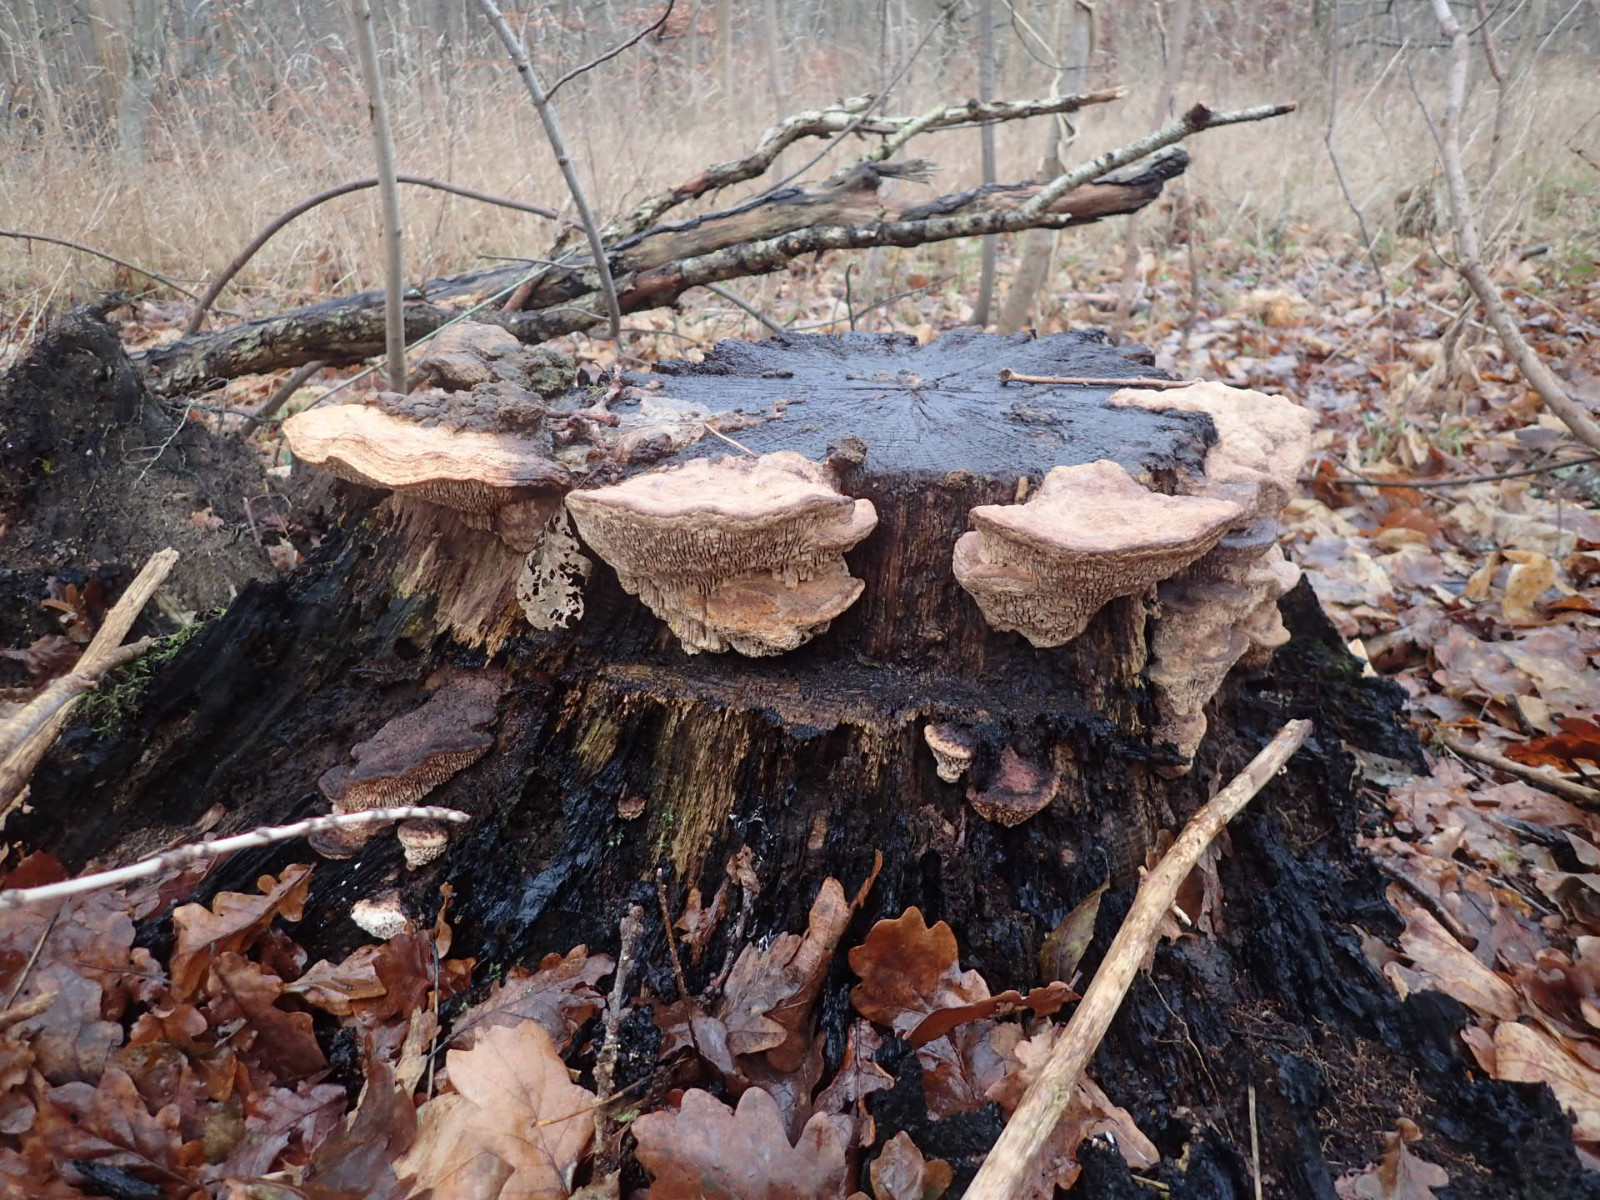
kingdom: Fungi
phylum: Basidiomycota
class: Agaricomycetes
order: Polyporales
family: Fomitopsidaceae
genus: Daedalea
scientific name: Daedalea quercina
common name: ege-labyrintsvamp
